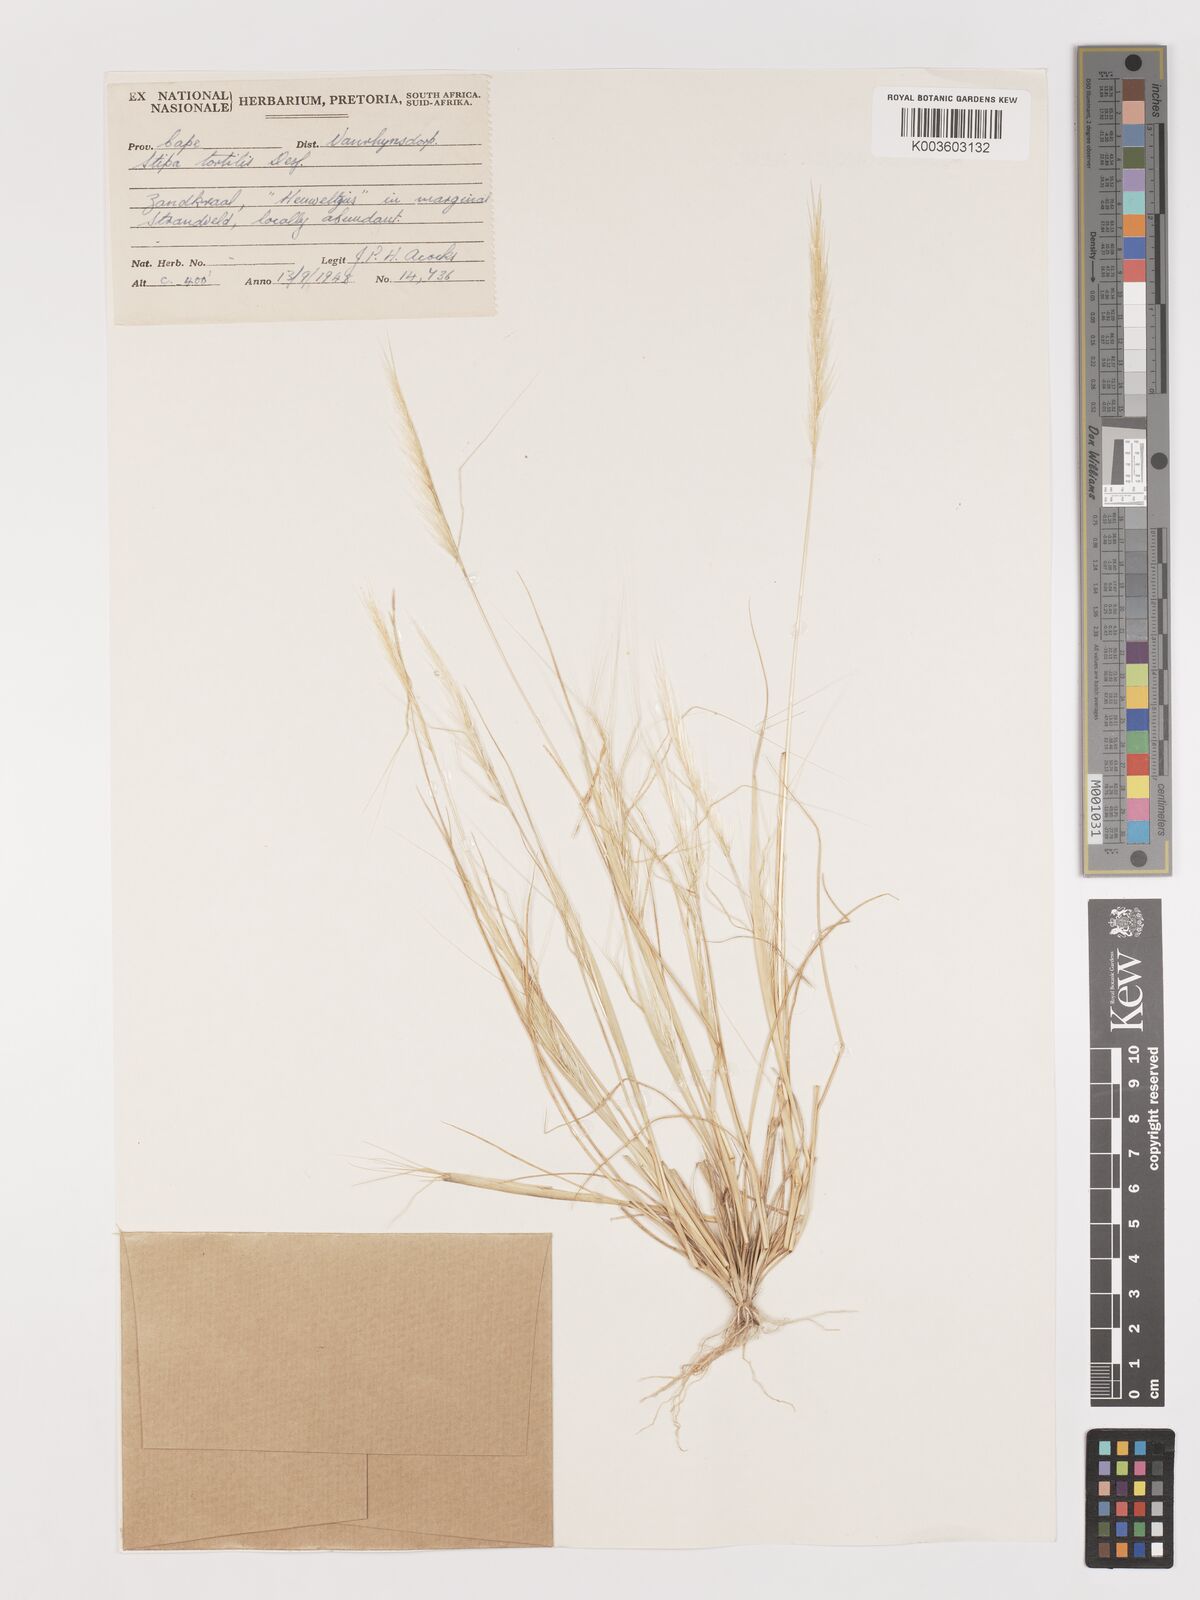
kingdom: Plantae
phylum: Tracheophyta
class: Liliopsida
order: Poales
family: Poaceae
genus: Stipellula
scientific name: Stipellula capensis
